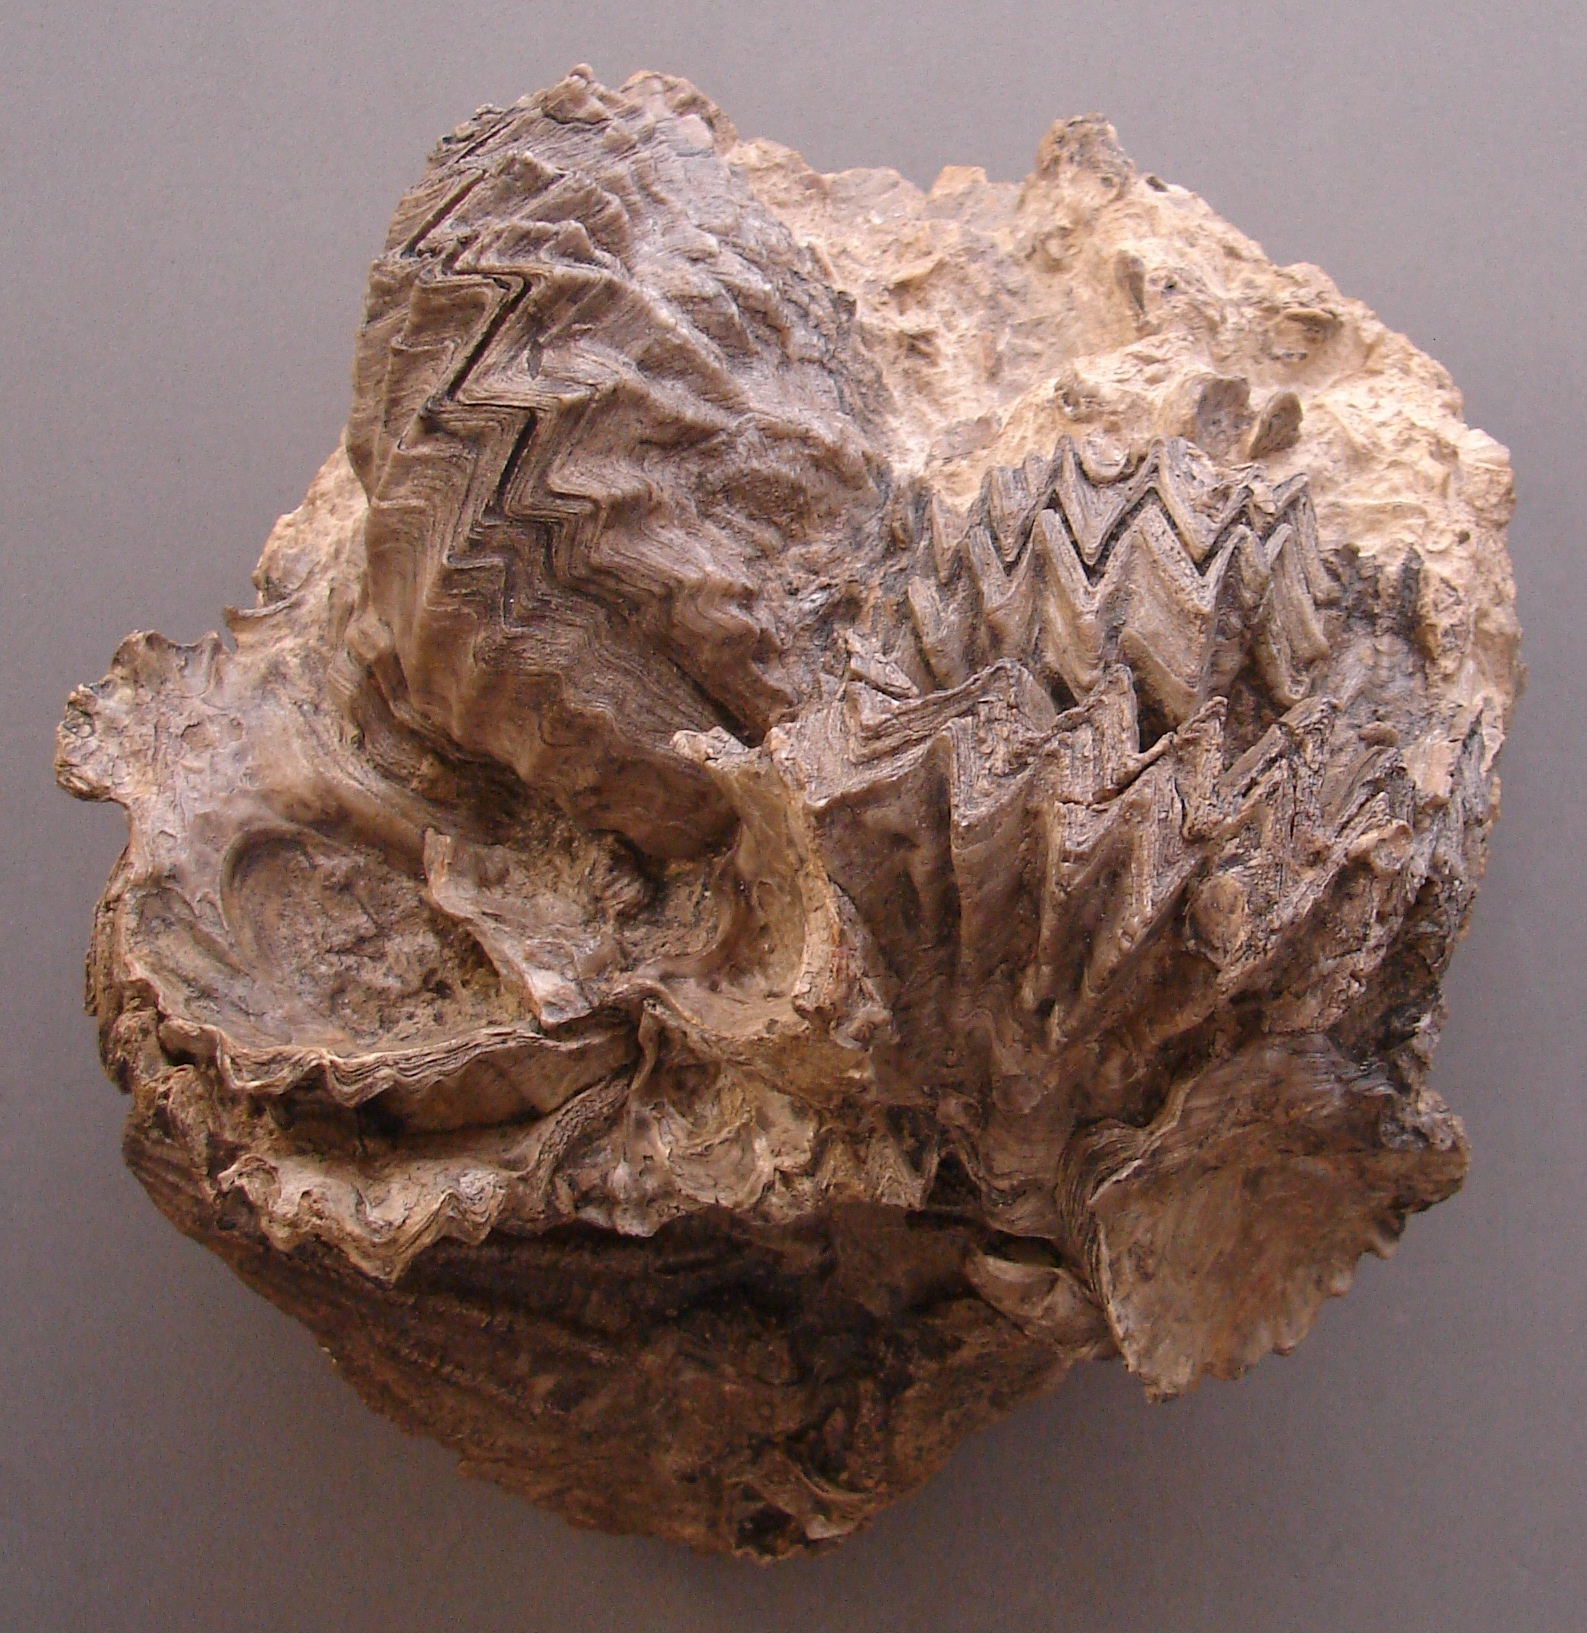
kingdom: Animalia
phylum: Mollusca
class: Bivalvia
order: Ostreida
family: Ostreidae
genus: Ostrea
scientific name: Ostrea marshii
